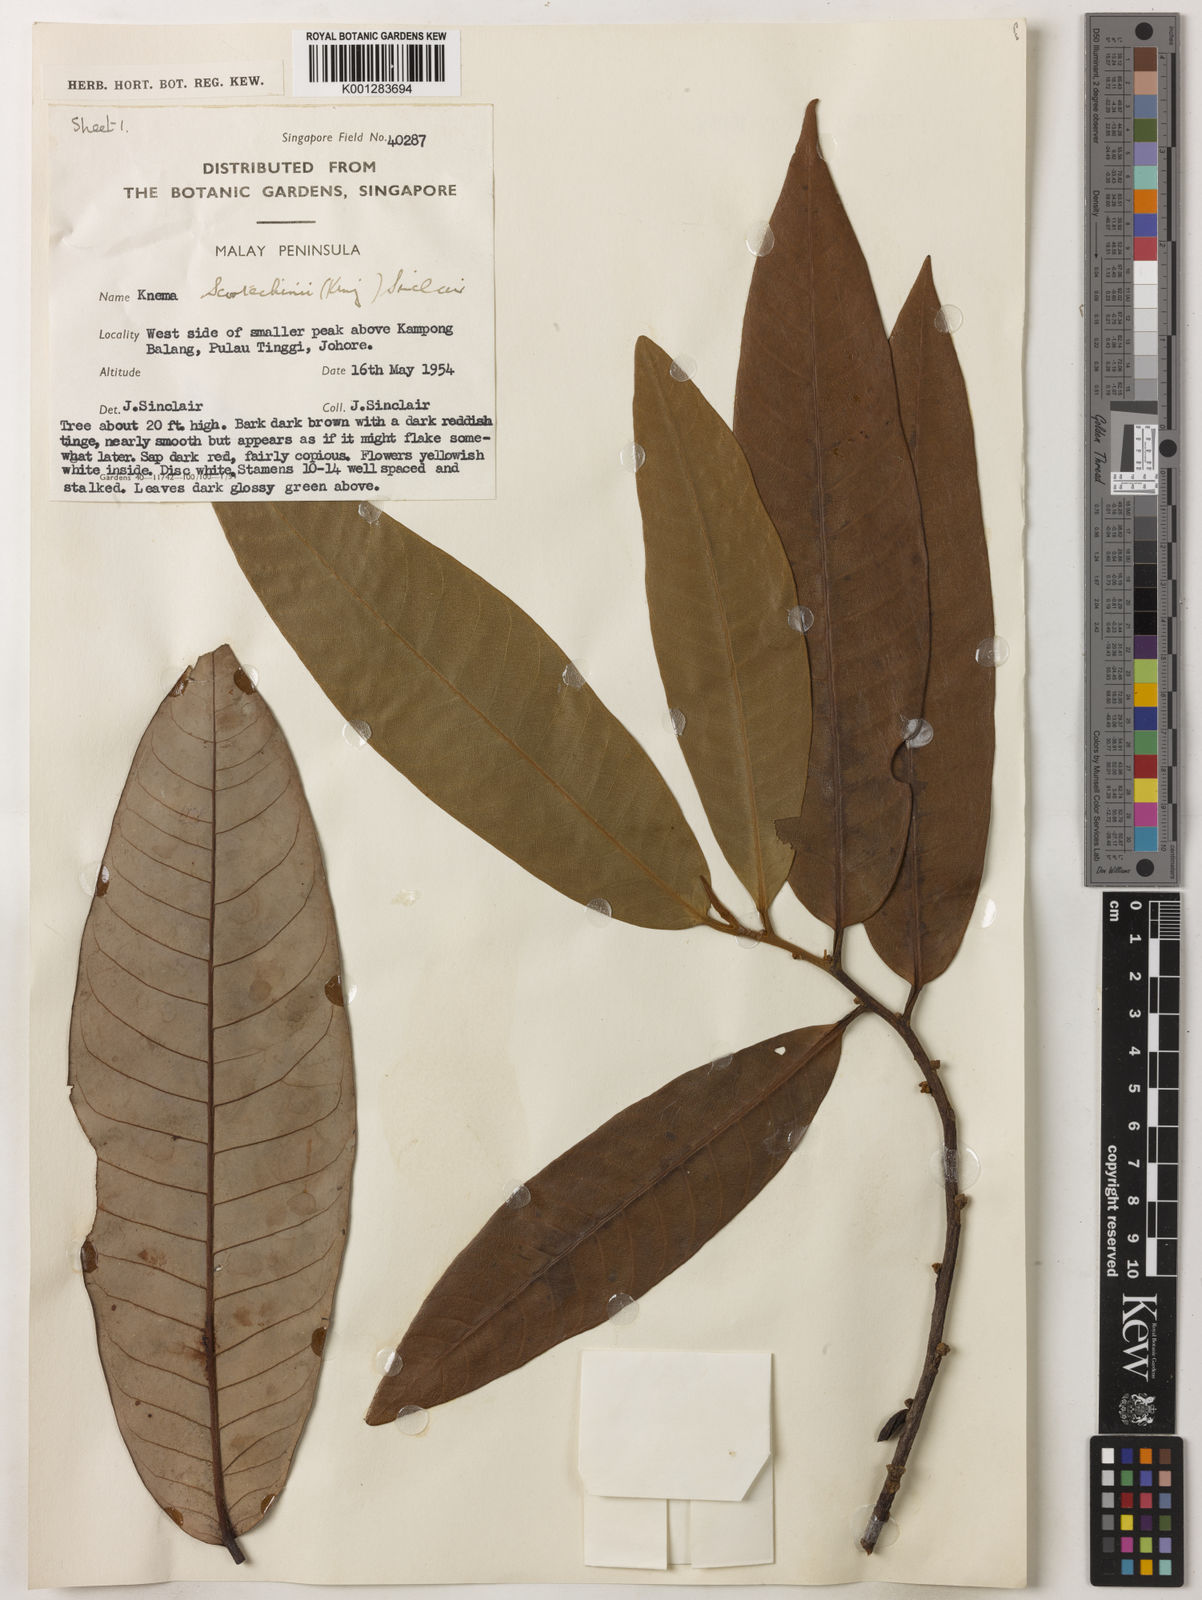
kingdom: Plantae
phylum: Tracheophyta
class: Magnoliopsida
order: Magnoliales
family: Myristicaceae
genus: Knema
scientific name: Knema scortechinii
